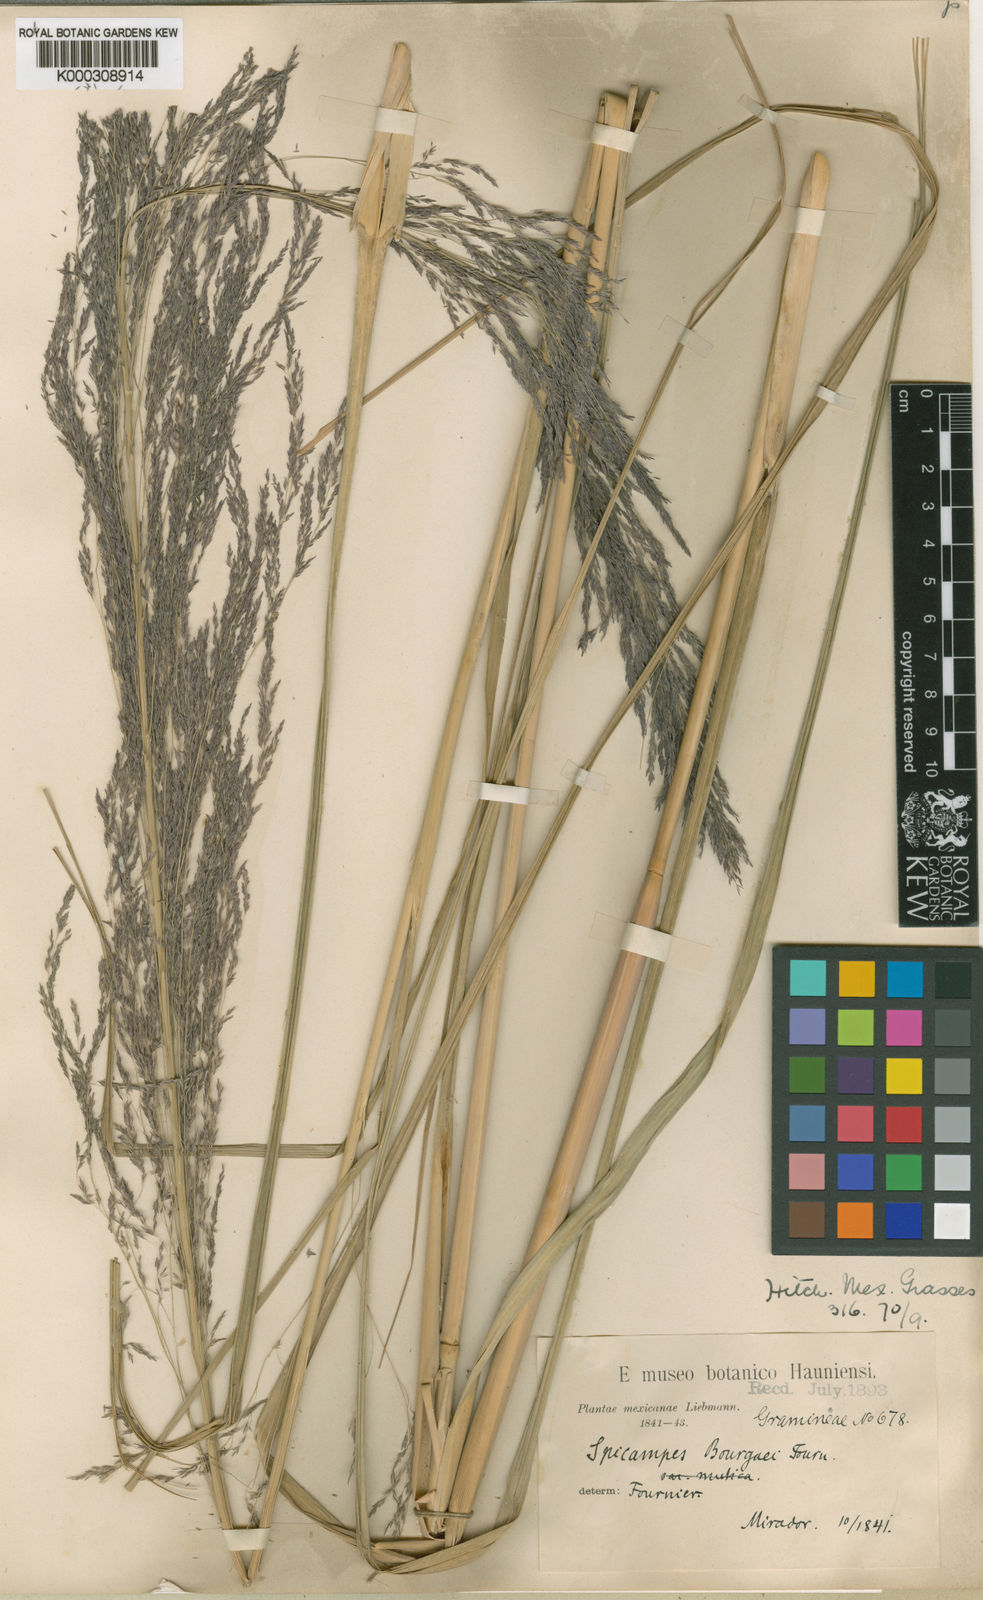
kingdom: Plantae
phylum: Tracheophyta
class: Liliopsida
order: Poales
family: Poaceae
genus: Muhlenbergia
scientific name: Muhlenbergia gigantea
